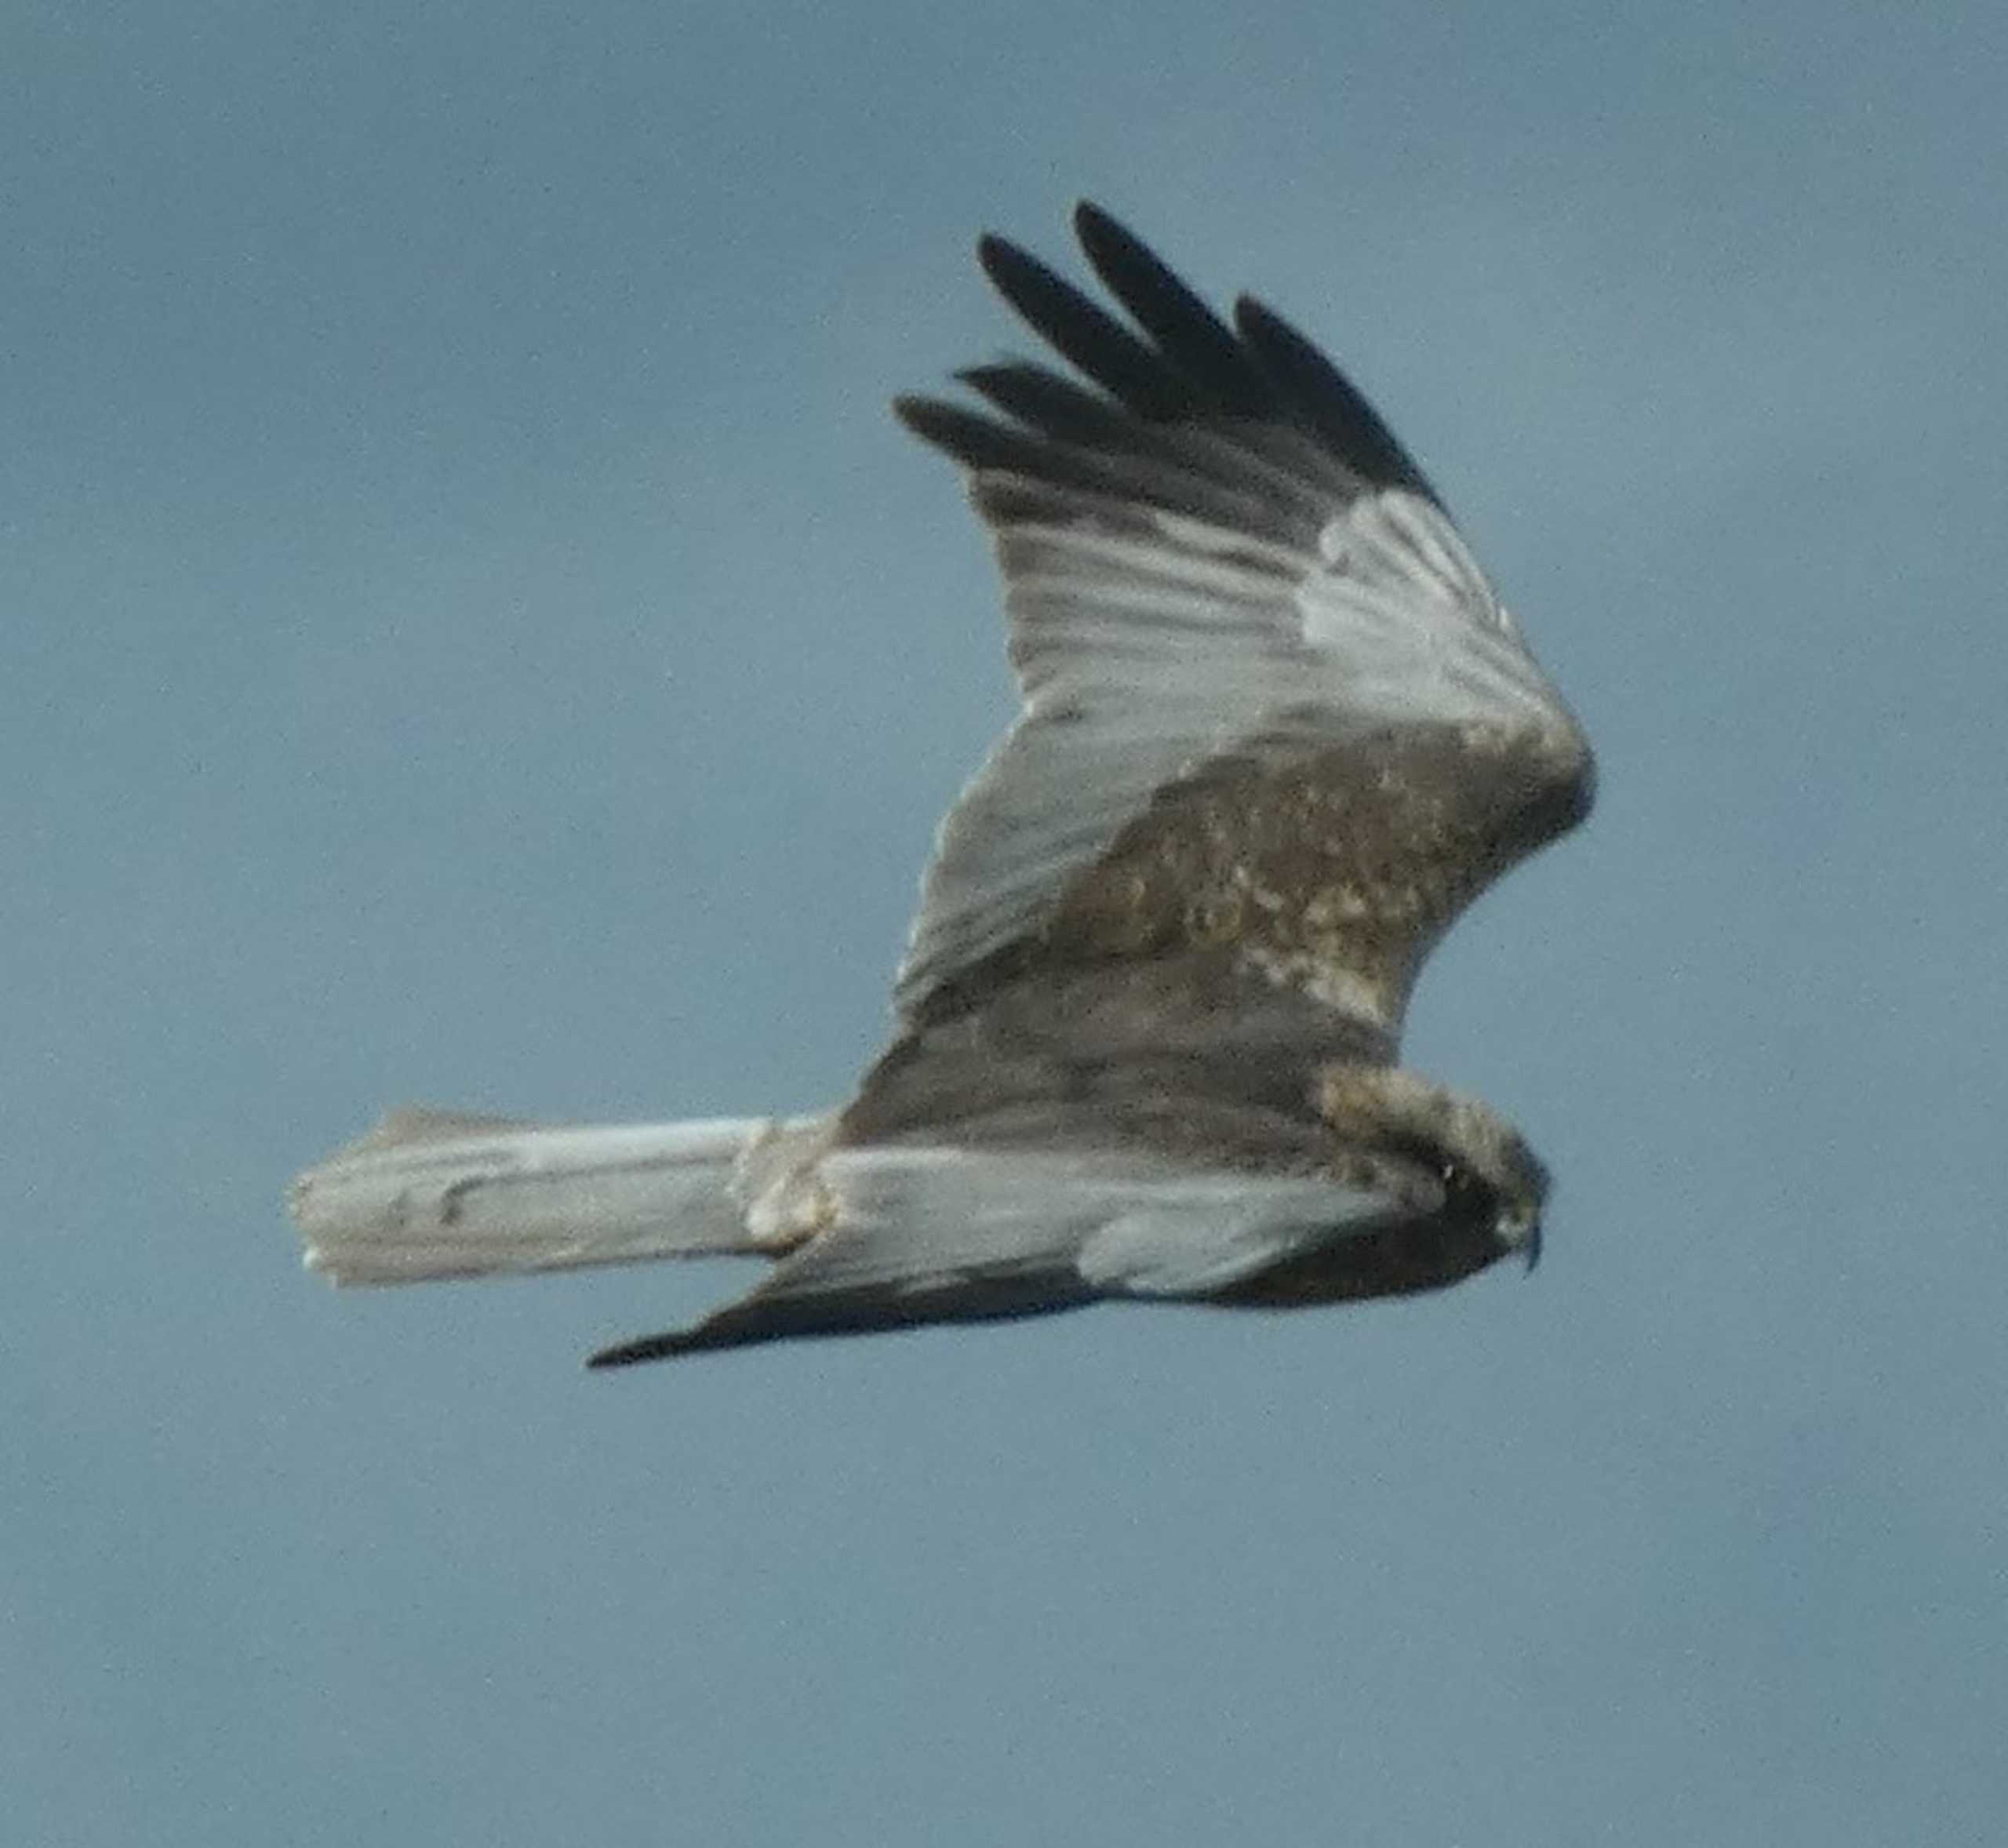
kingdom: Animalia
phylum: Chordata
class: Aves
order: Accipitriformes
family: Accipitridae
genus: Circus
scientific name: Circus aeruginosus
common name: Rørhøg
